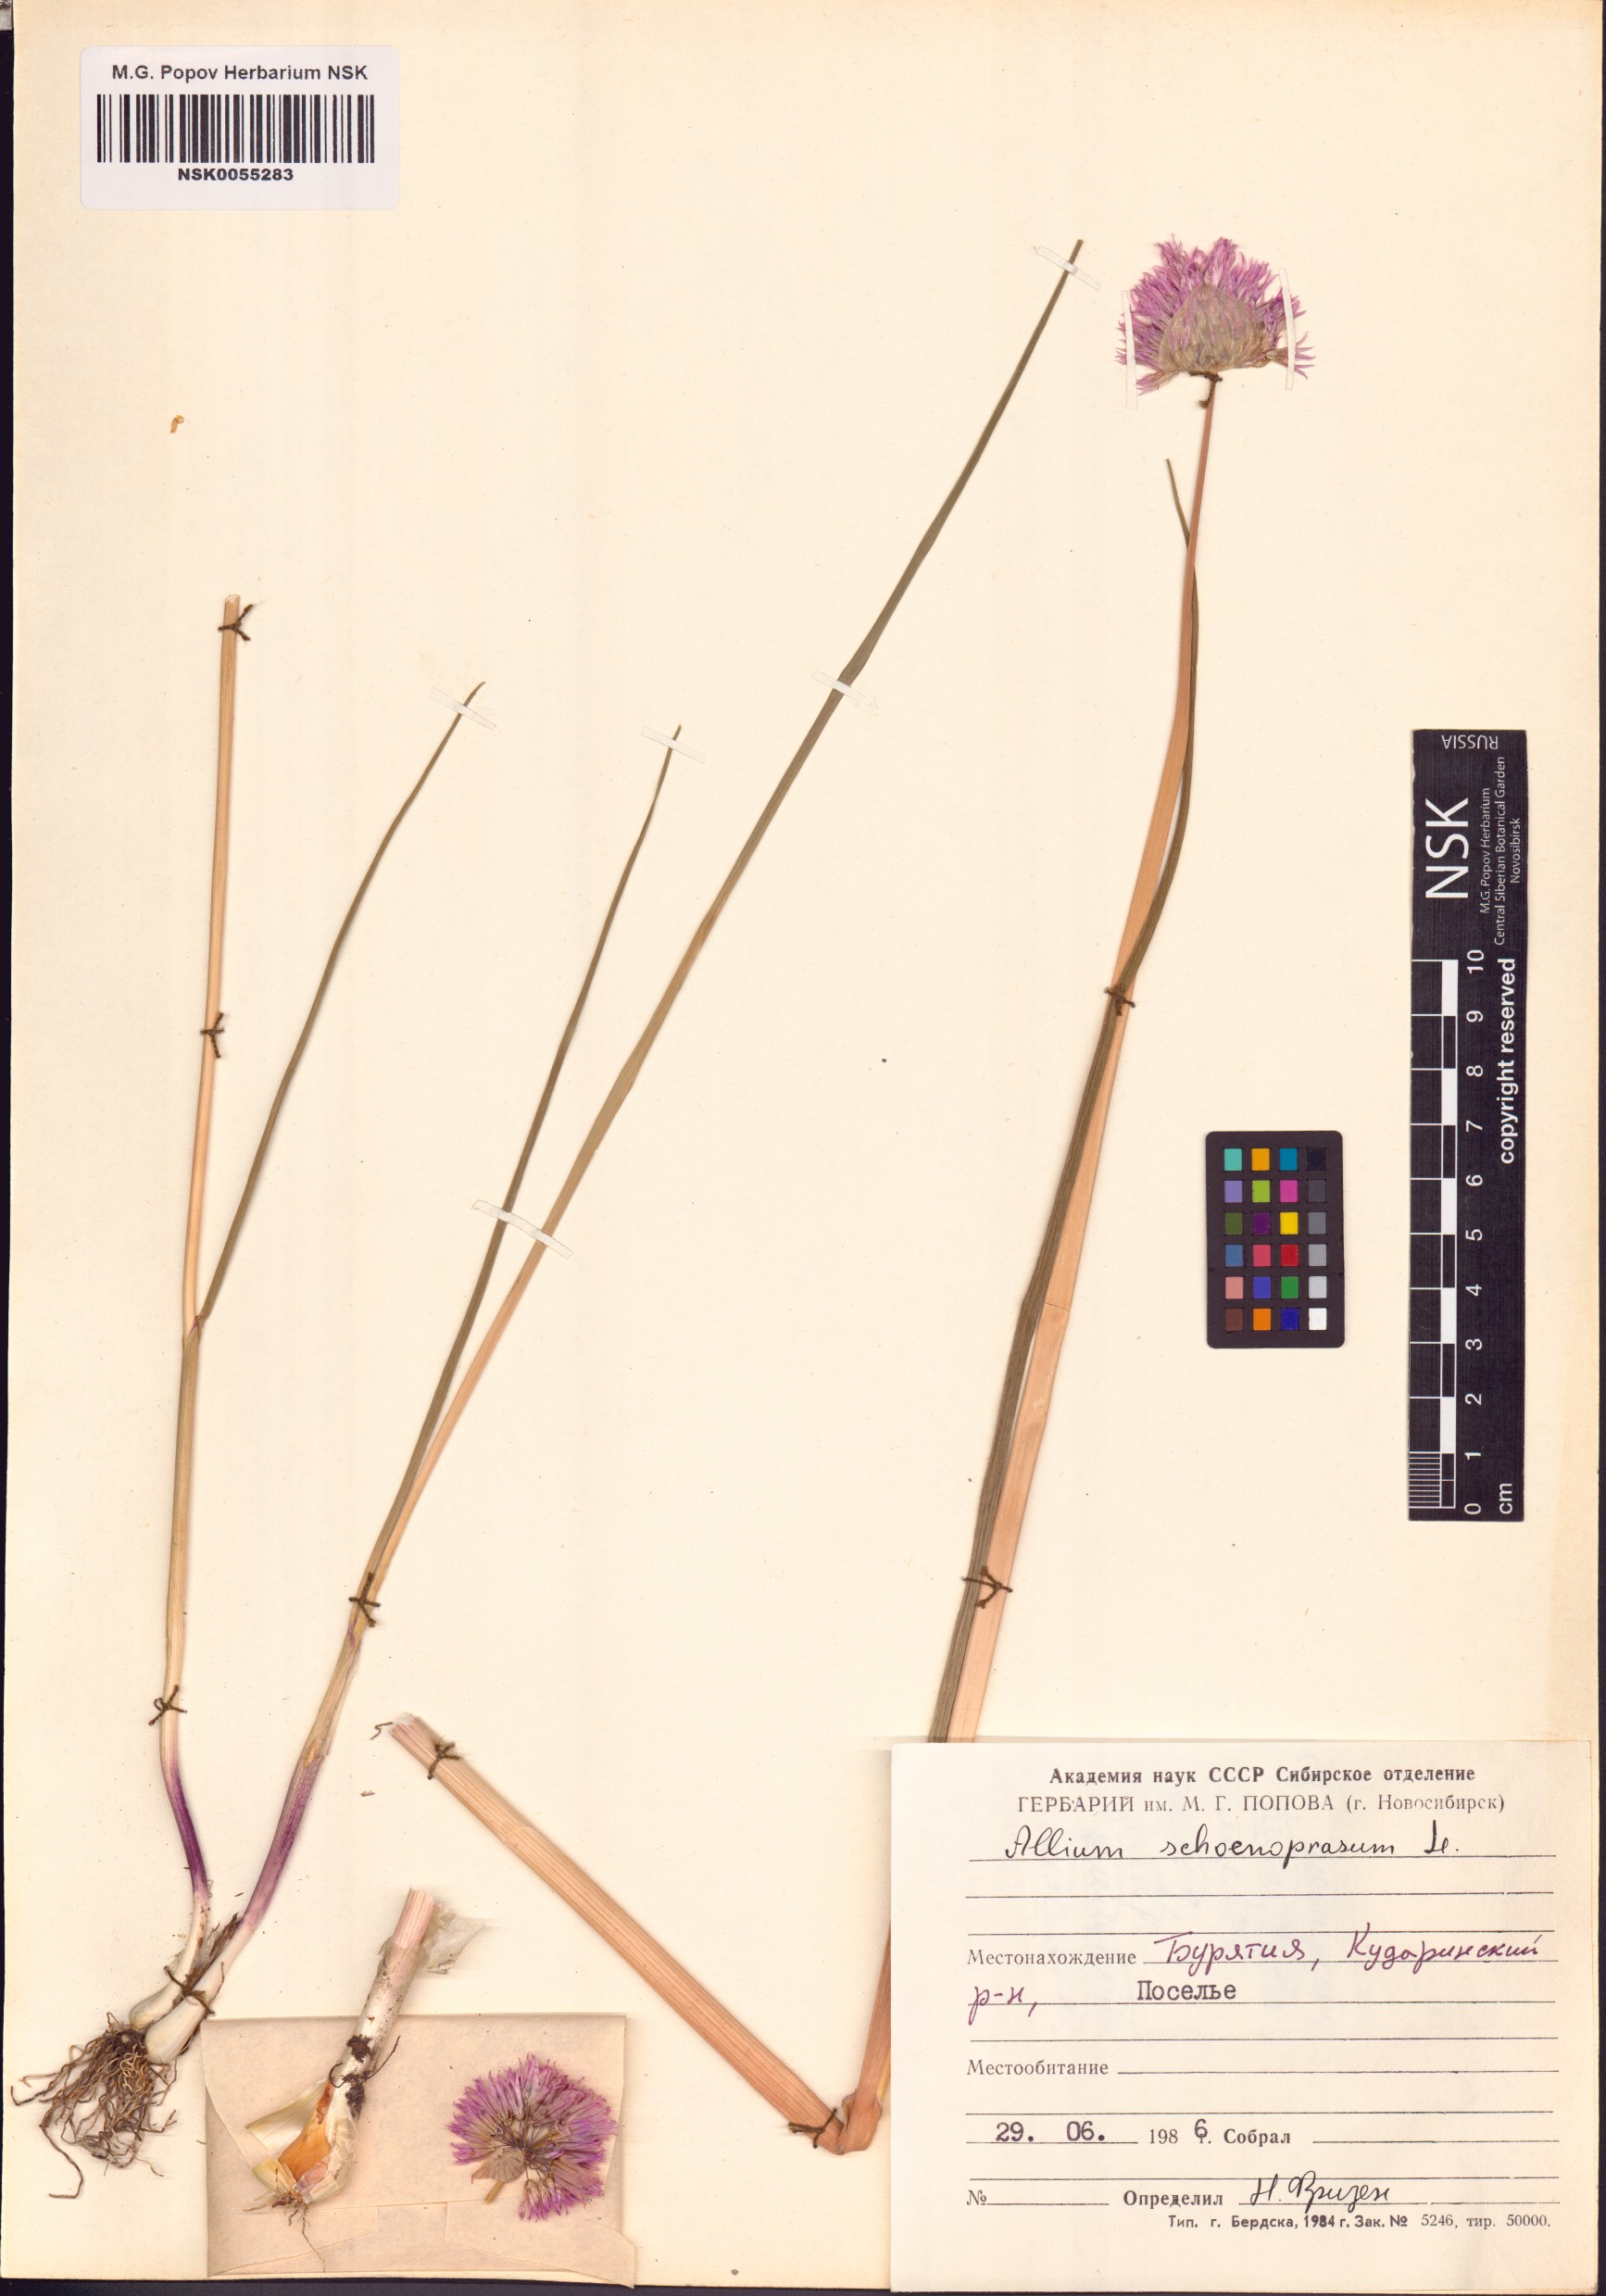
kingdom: Plantae
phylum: Tracheophyta
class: Liliopsida
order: Asparagales
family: Amaryllidaceae
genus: Allium
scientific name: Allium schoenoprasum
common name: Chives
